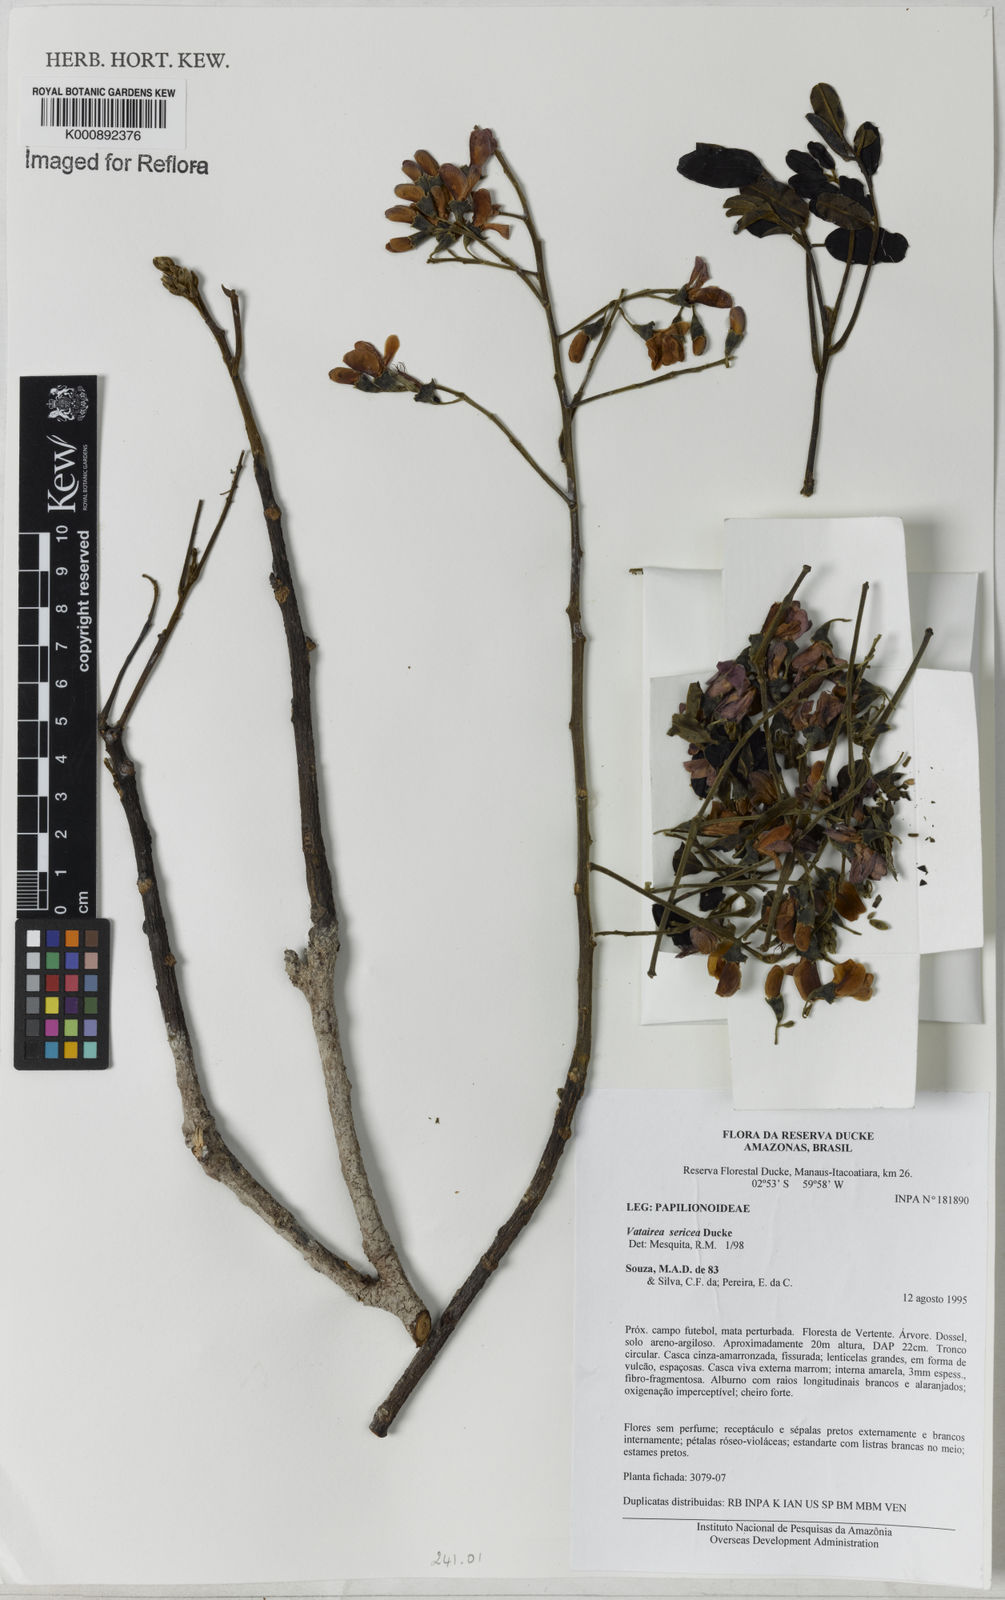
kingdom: Plantae
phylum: Tracheophyta
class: Magnoliopsida
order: Fabales
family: Fabaceae
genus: Vatairea
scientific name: Vatairea sericea
